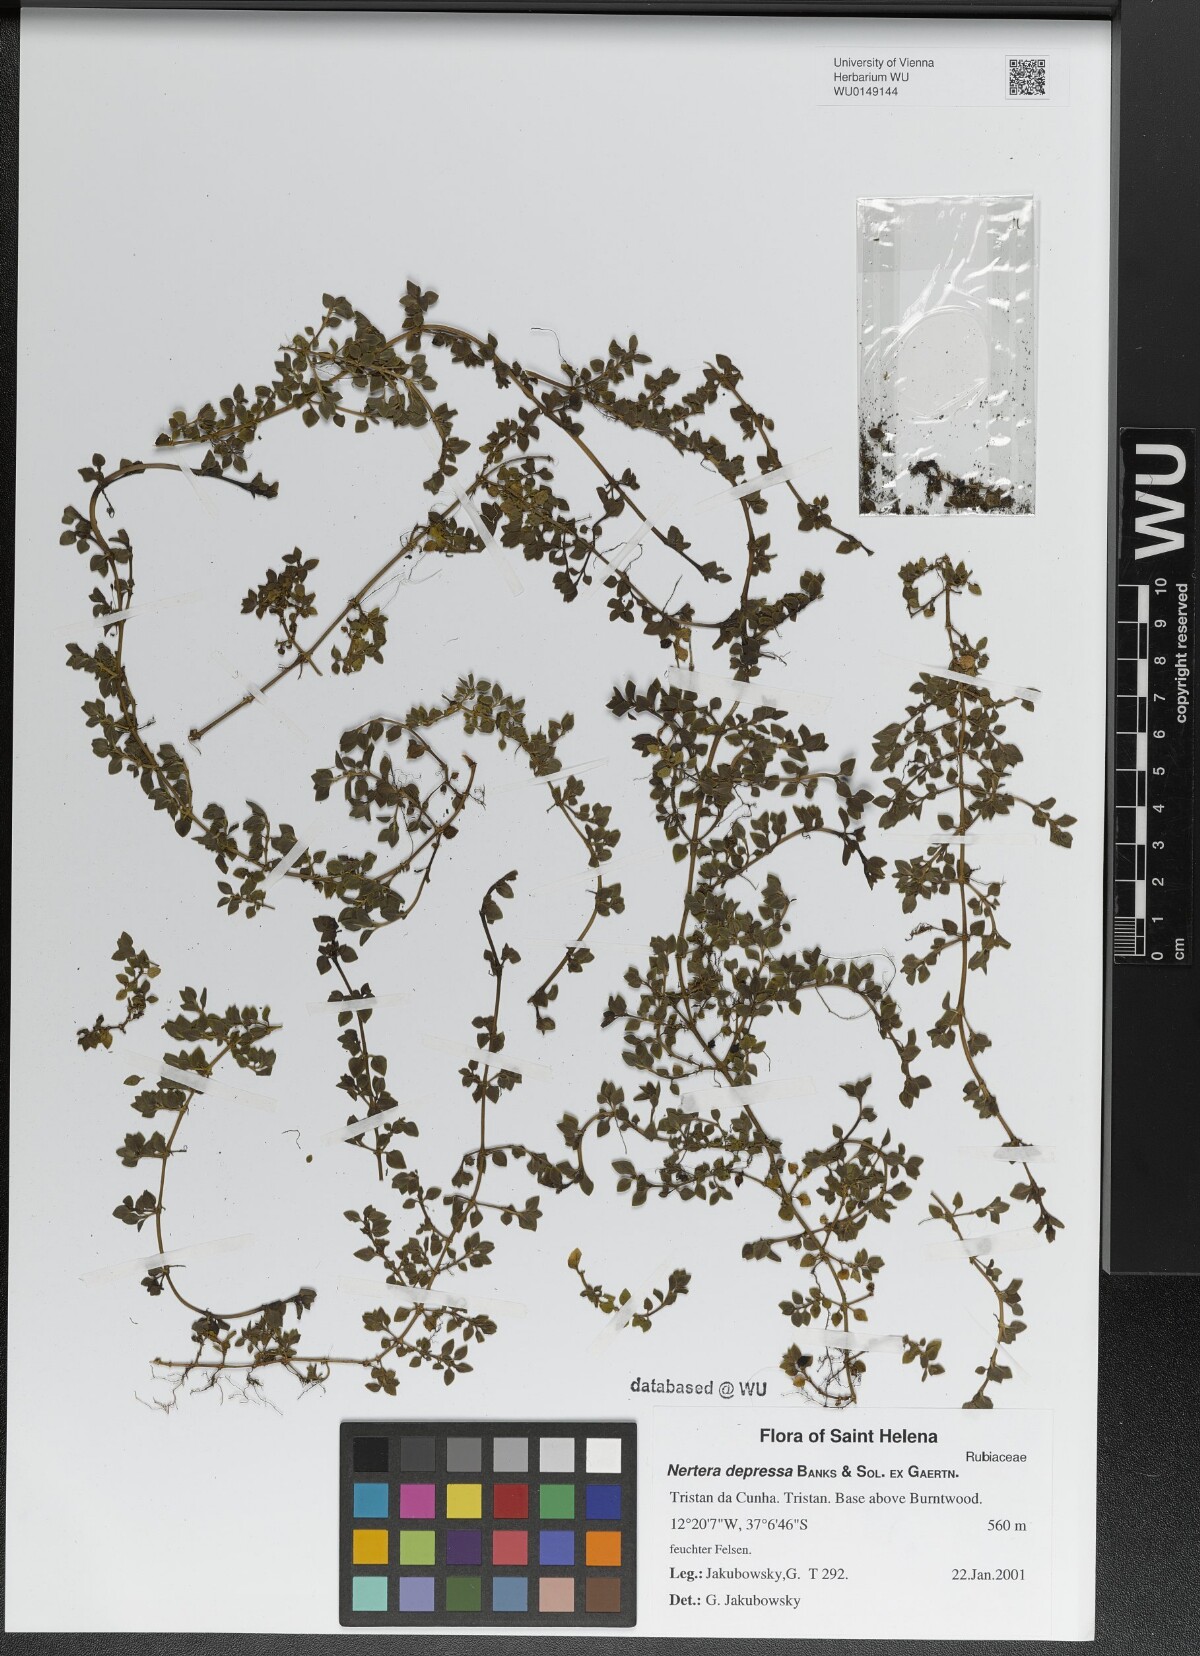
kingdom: Plantae
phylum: Tracheophyta
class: Magnoliopsida
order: Gentianales
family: Rubiaceae
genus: Nertera
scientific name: Nertera granadensis
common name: Beadplant
